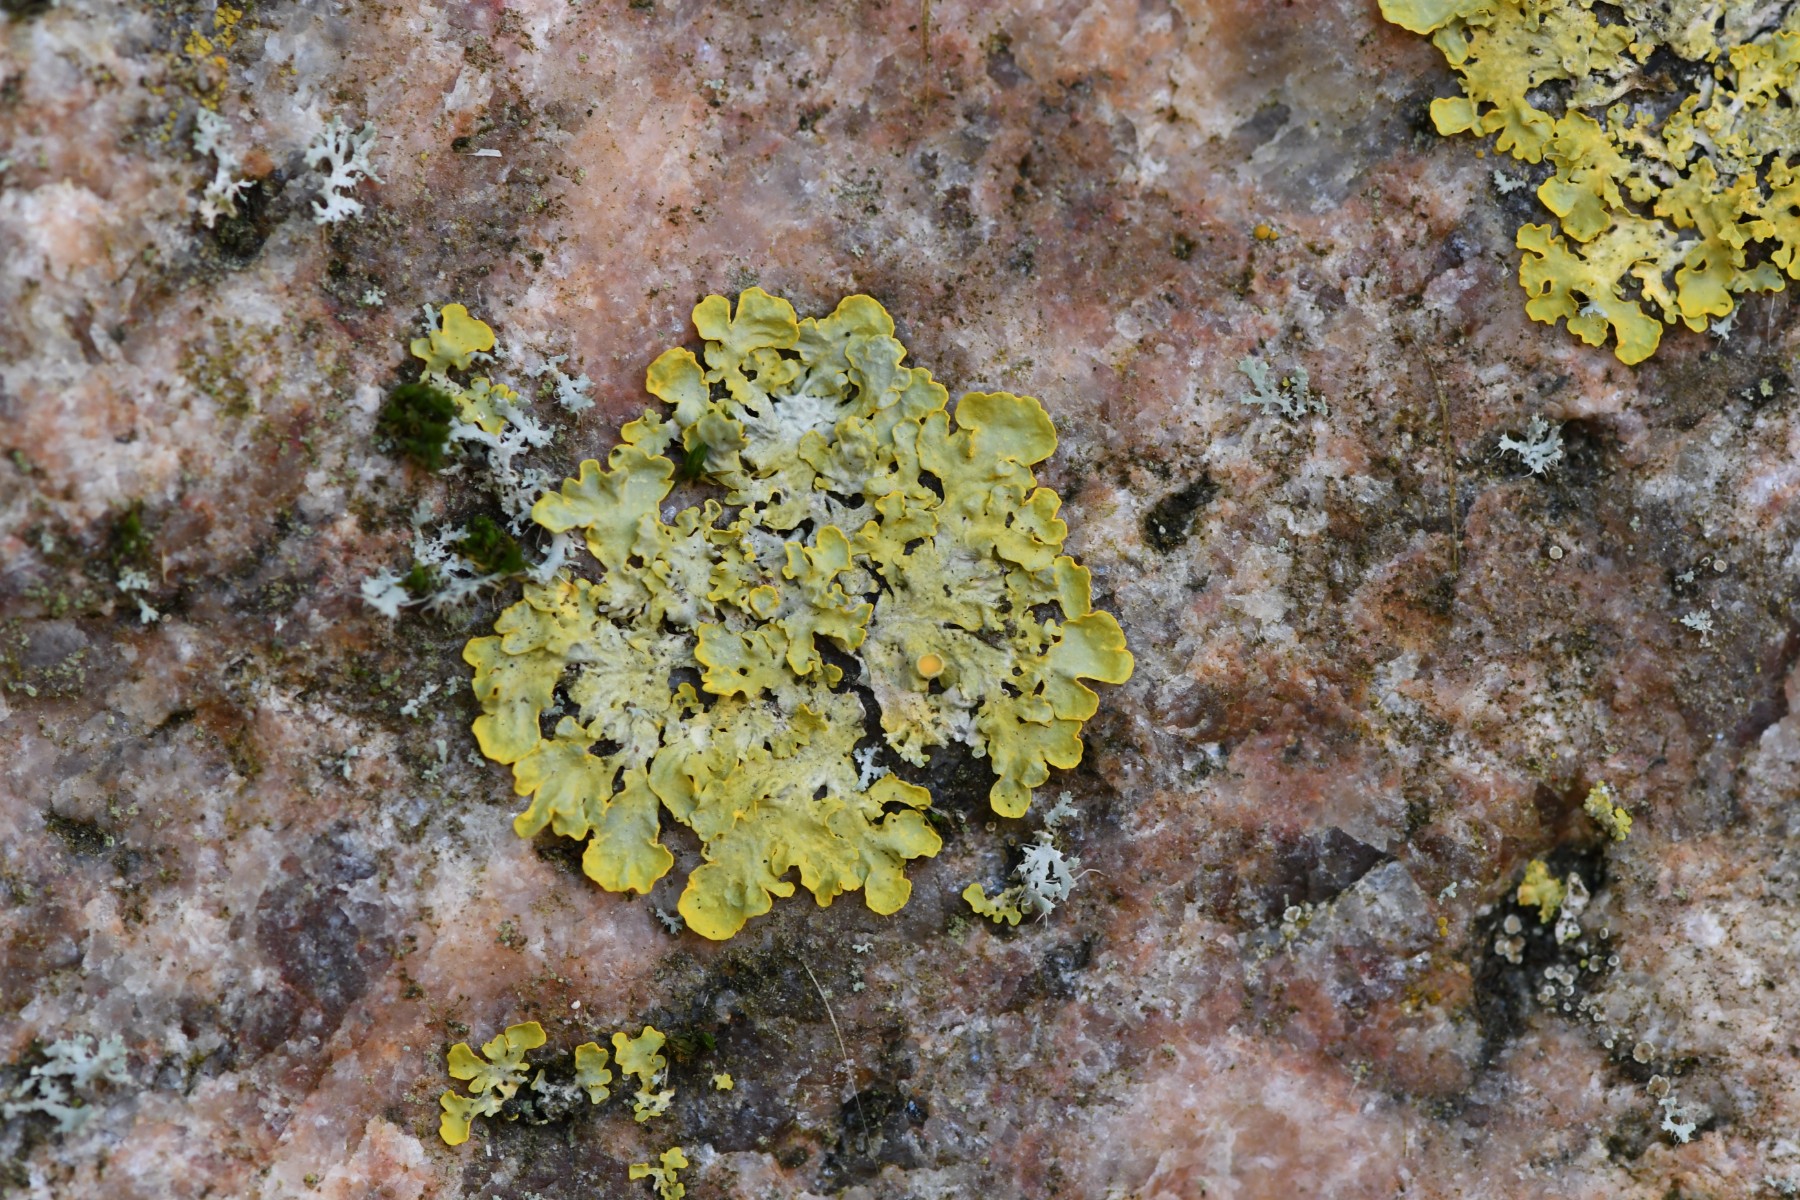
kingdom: Fungi
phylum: Ascomycota
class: Lecanoromycetes
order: Teloschistales
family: Teloschistaceae
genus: Xanthoria
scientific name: Xanthoria parietina
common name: almindelig væggelav
